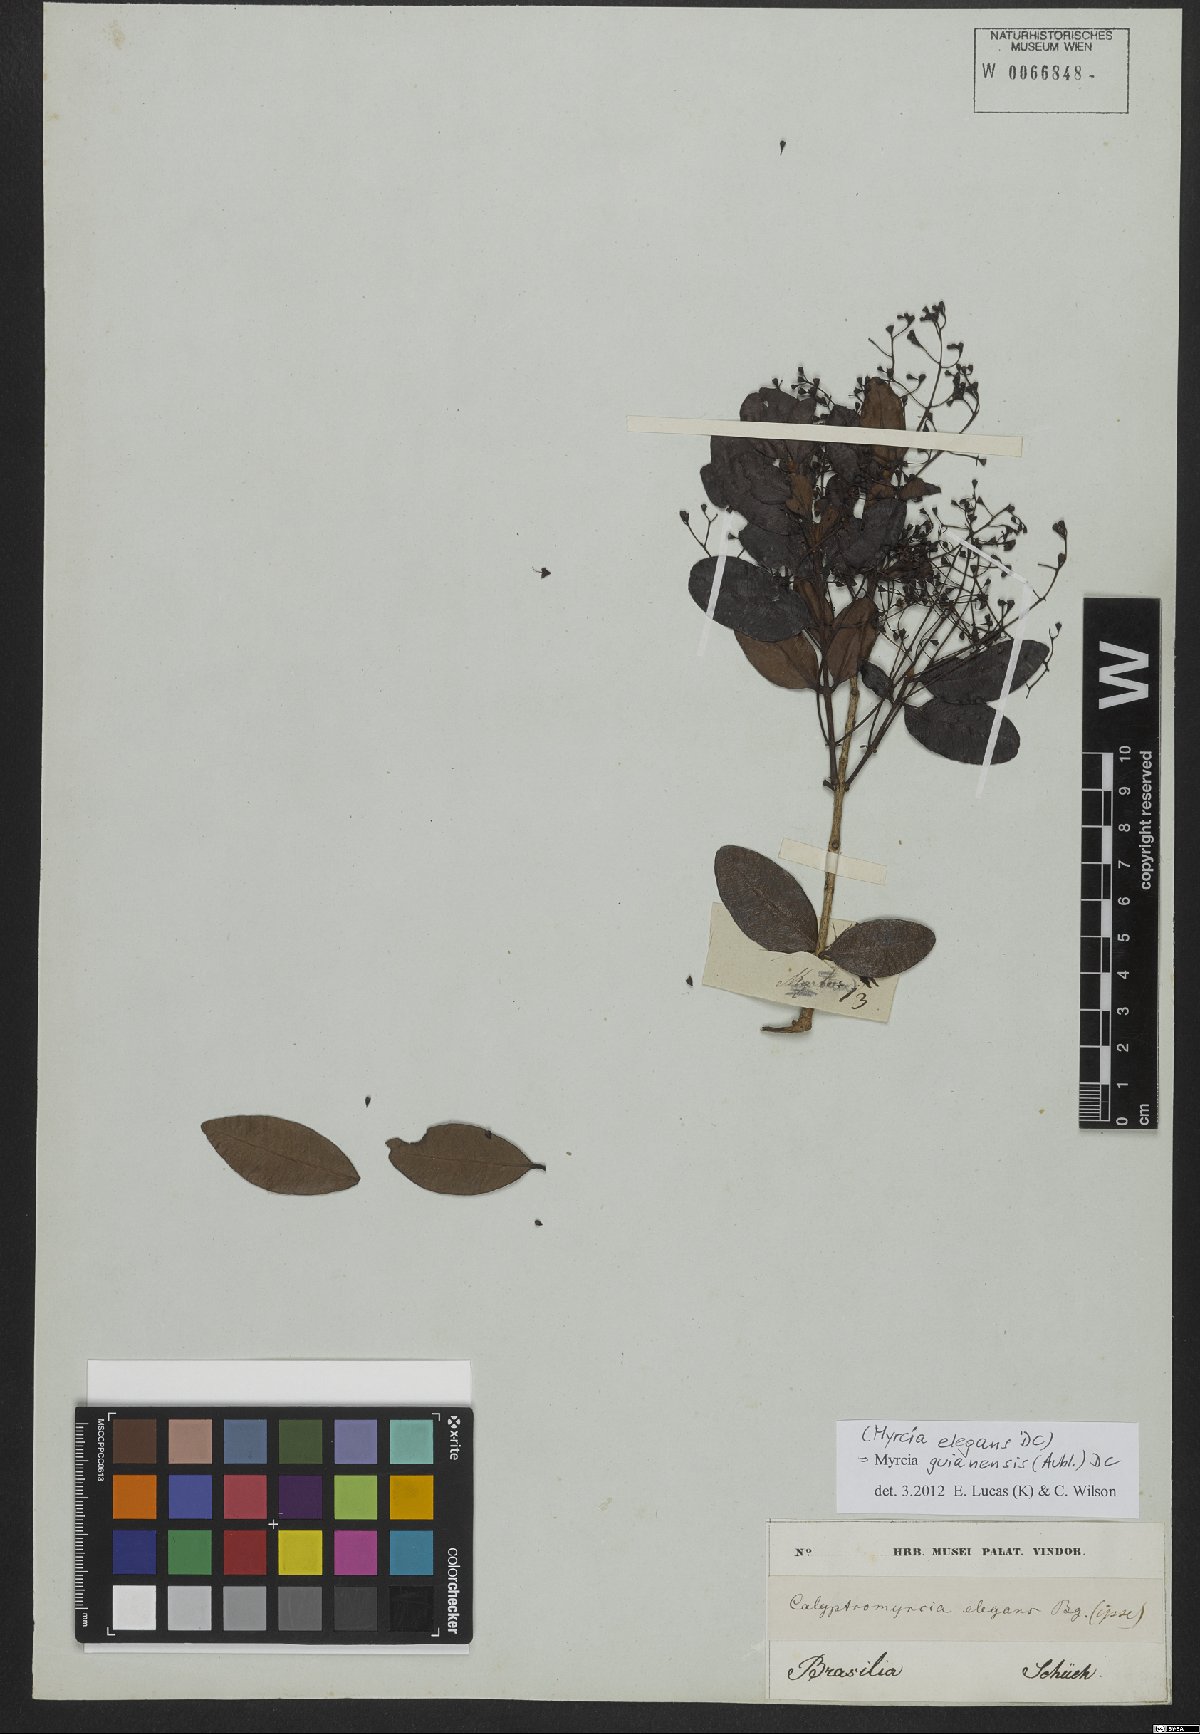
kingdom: Plantae
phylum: Tracheophyta
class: Magnoliopsida
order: Myrtales
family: Myrtaceae
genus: Myrcia
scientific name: Myrcia guianensis
